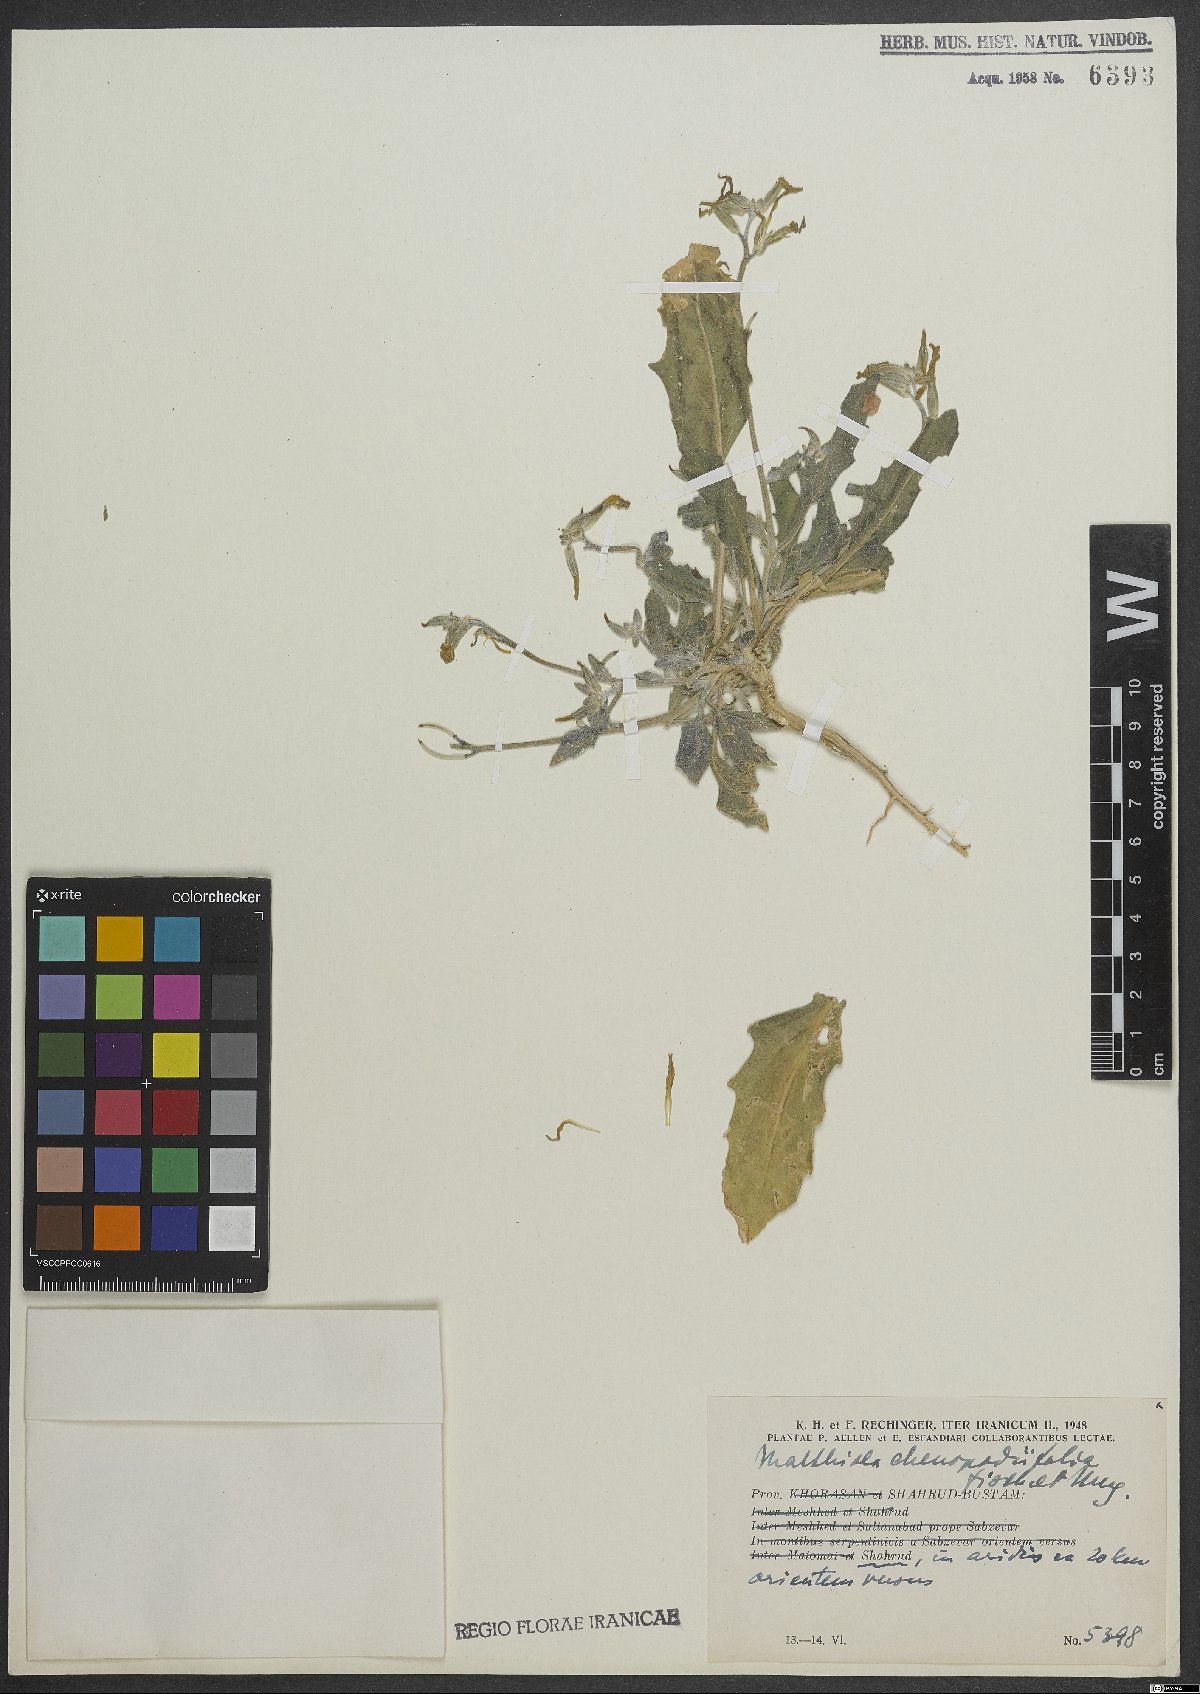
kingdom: Plantae
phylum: Tracheophyta
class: Magnoliopsida
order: Brassicales
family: Brassicaceae
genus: Matthiola
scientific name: Matthiola chenopodiifolia
